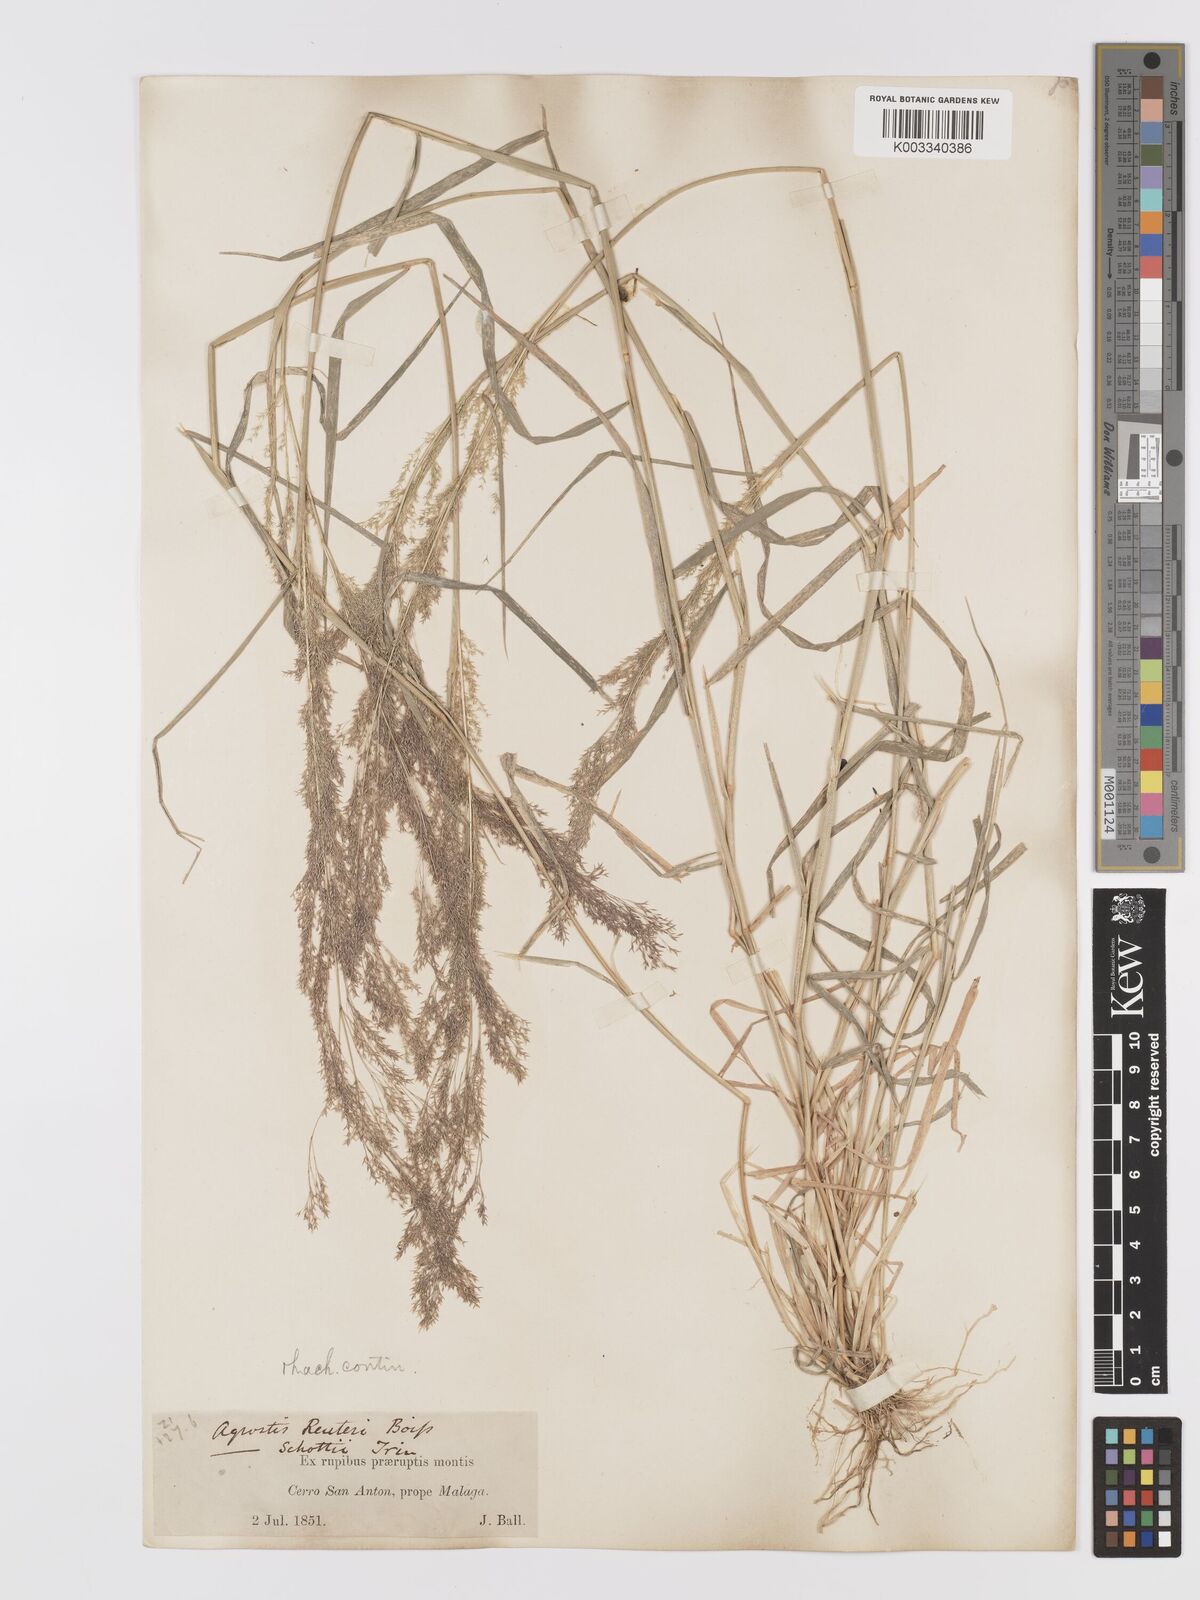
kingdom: Plantae
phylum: Tracheophyta
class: Liliopsida
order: Poales
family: Poaceae
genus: Agrostis
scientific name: Agrostis reuteri
